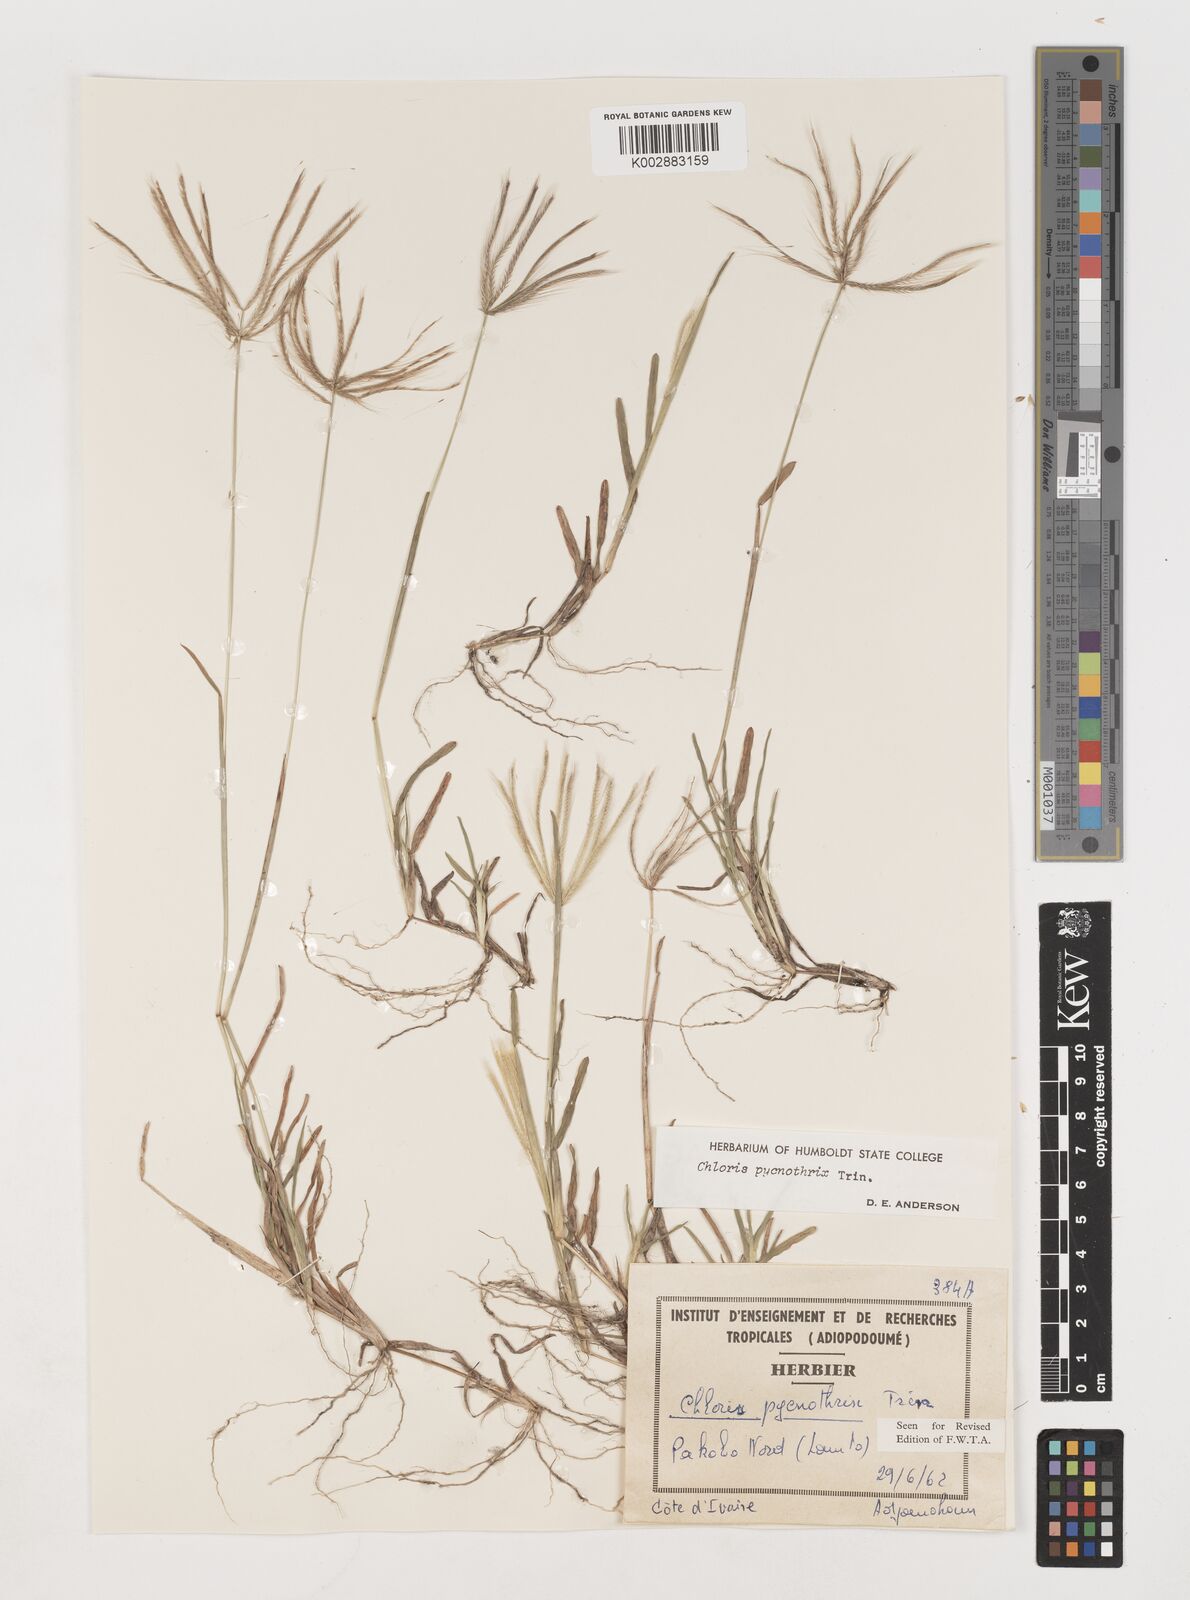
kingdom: Plantae
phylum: Tracheophyta
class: Liliopsida
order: Poales
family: Poaceae
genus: Chloris
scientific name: Chloris pycnothrix
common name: Spiderweb chloris
